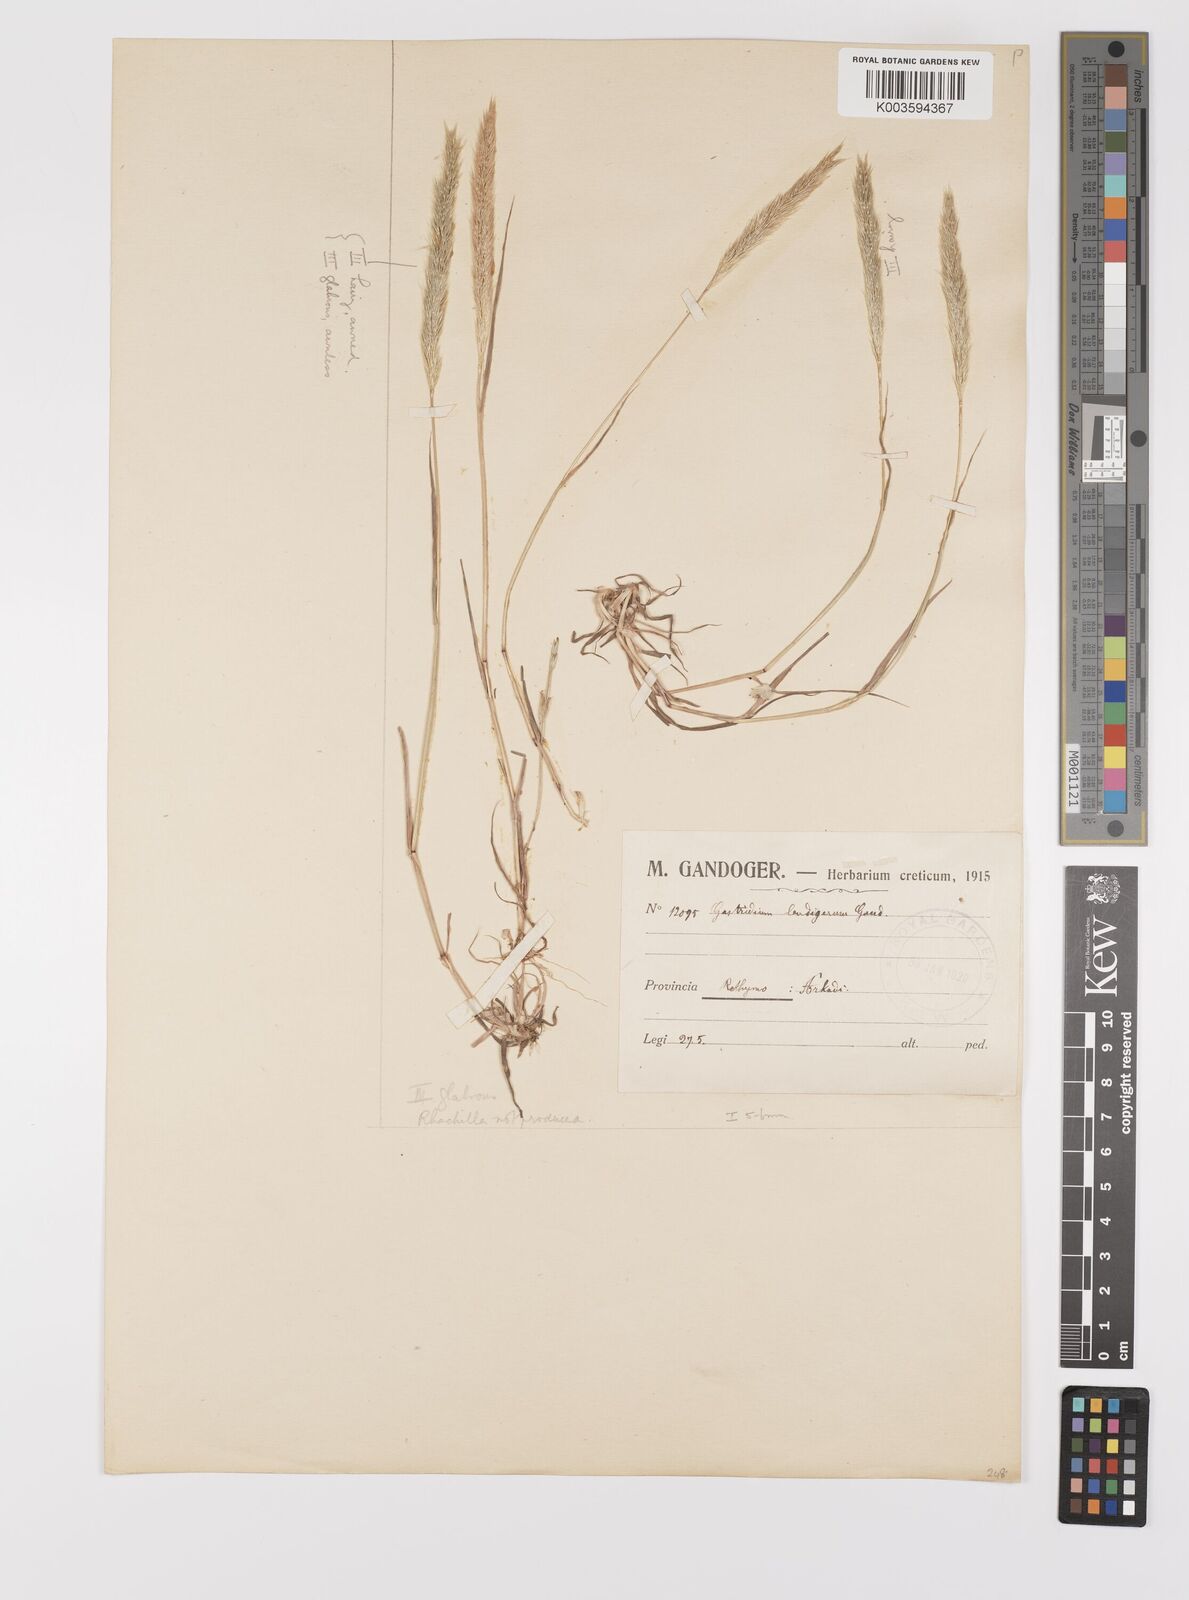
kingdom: Plantae
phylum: Tracheophyta
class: Liliopsida
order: Poales
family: Poaceae
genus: Gastridium
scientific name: Gastridium phleoides
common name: Nit grass
